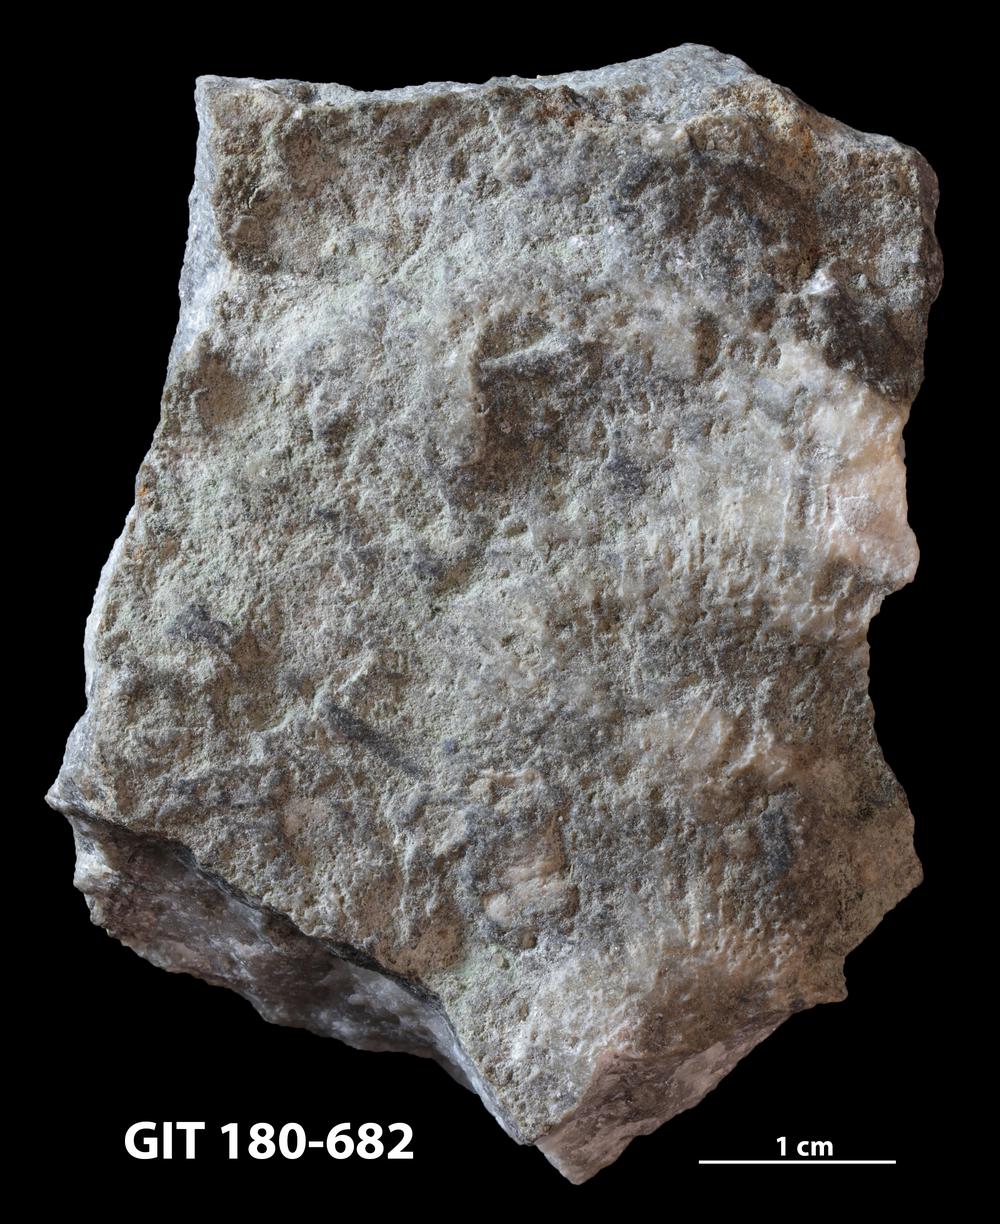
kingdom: Animalia
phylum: Cnidaria
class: Anthozoa
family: Favositidae
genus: Favosites
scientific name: Favosites
